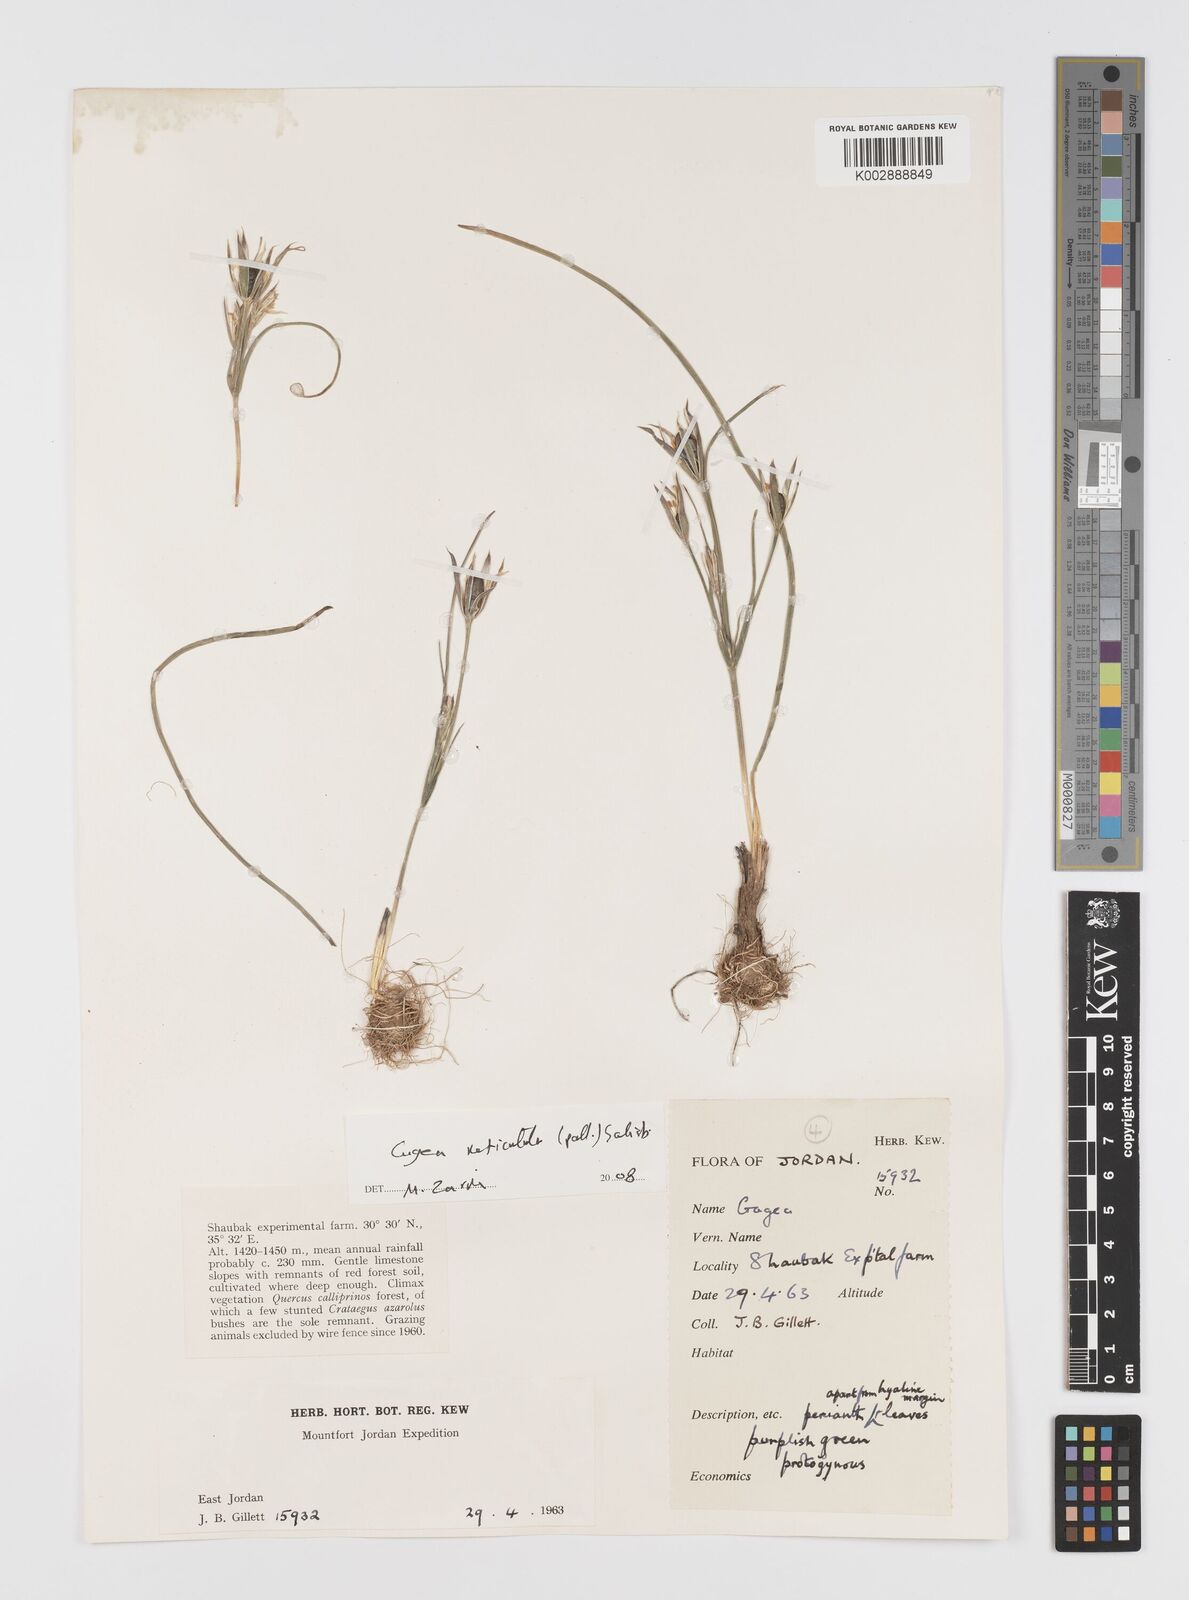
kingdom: Plantae
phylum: Tracheophyta
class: Liliopsida
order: Liliales
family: Liliaceae
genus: Gagea
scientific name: Gagea
